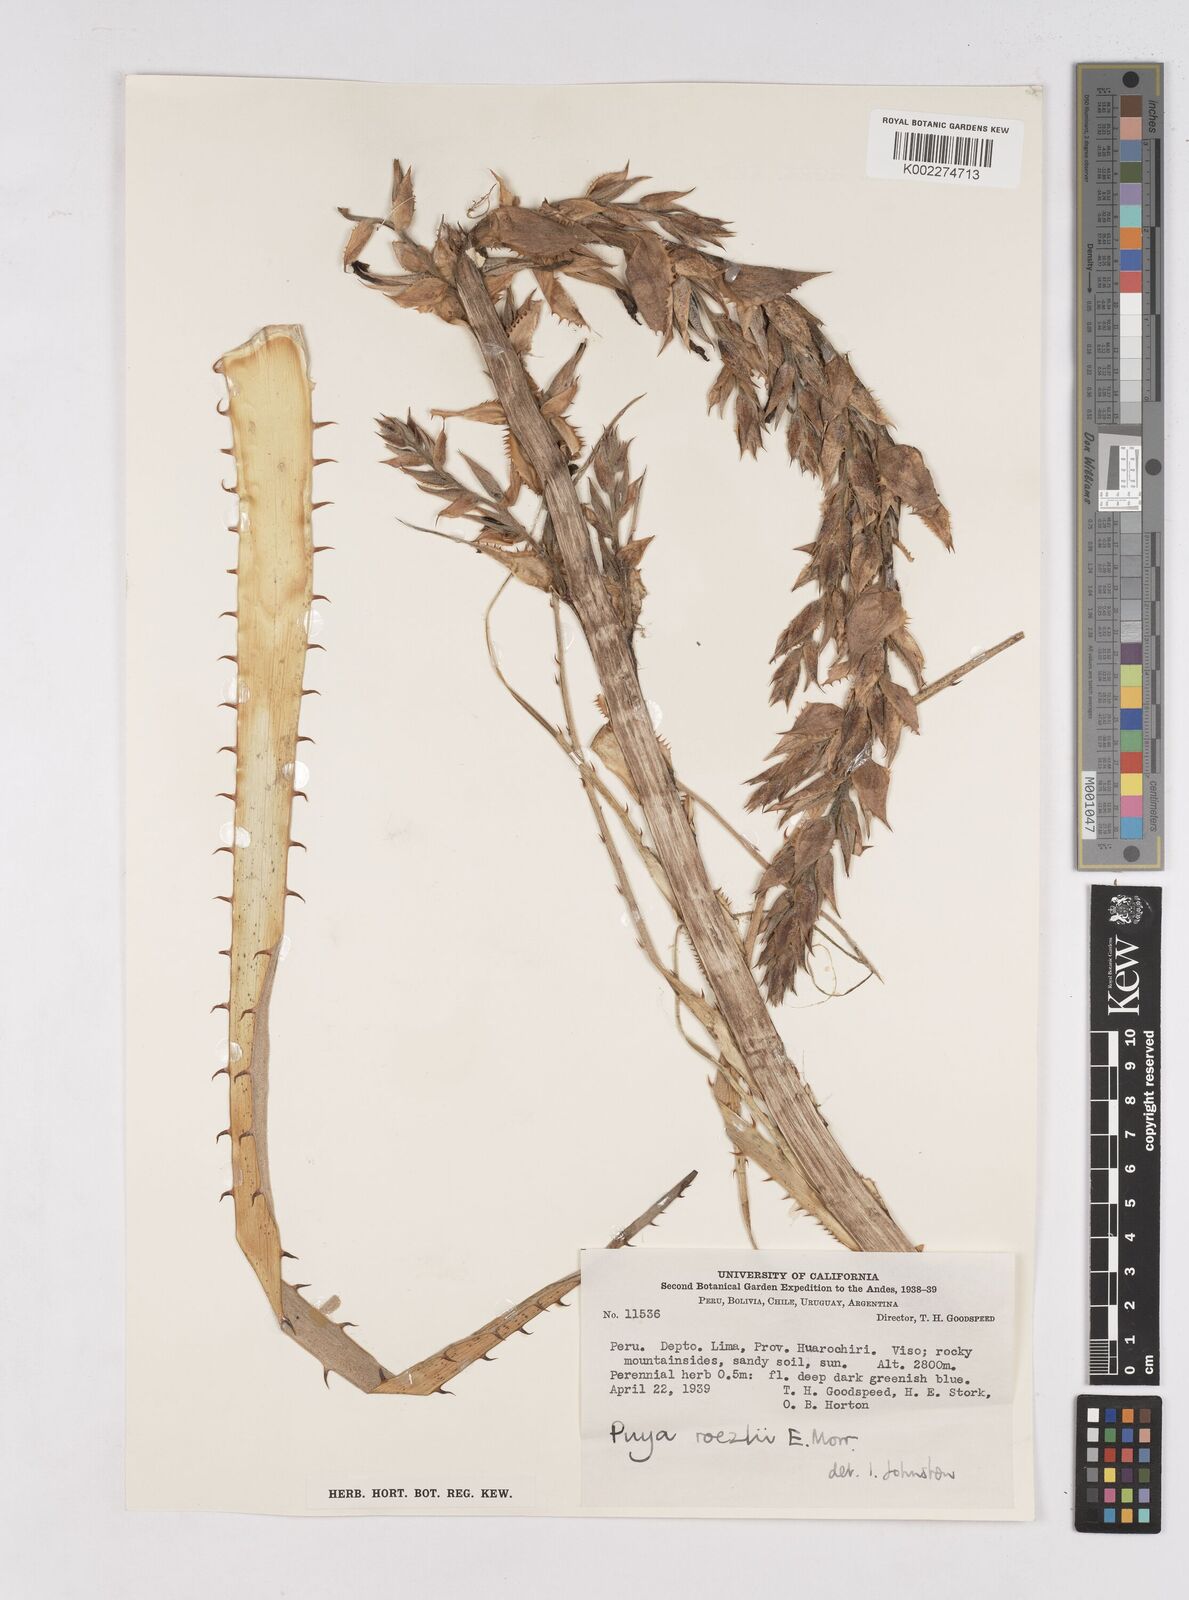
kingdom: Plantae
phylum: Tracheophyta
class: Liliopsida
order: Poales
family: Bromeliaceae
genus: Puya
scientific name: Puya roezlii
